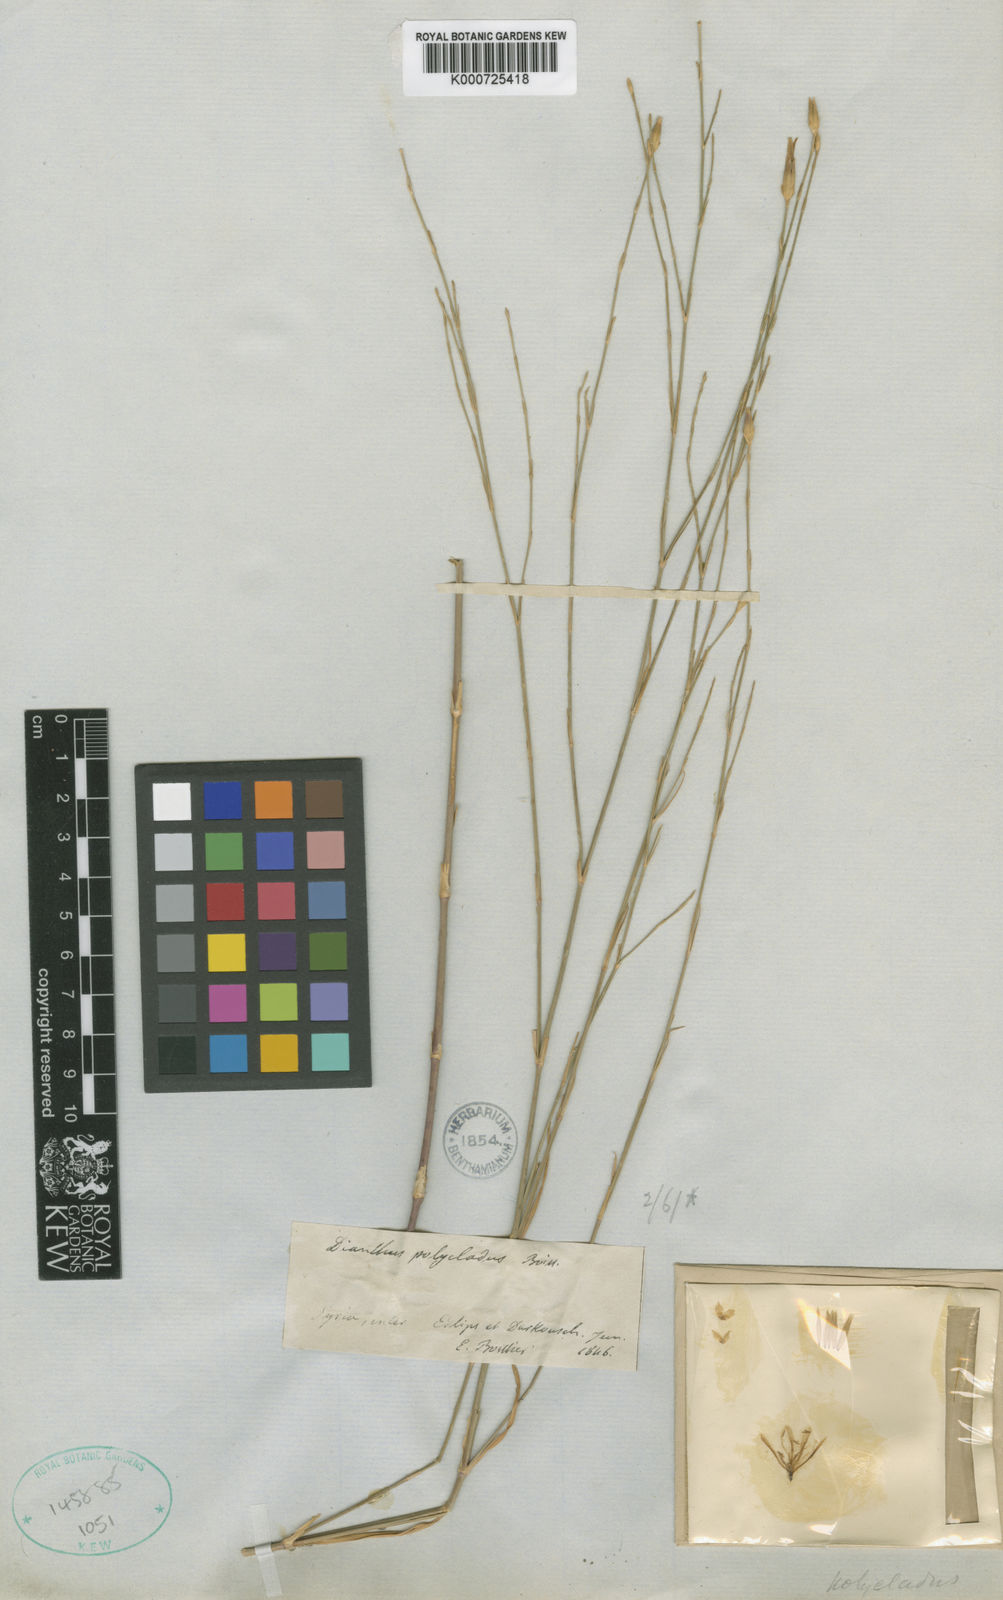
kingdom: Plantae
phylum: Tracheophyta
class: Magnoliopsida
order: Caryophyllales
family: Caryophyllaceae
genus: Dianthus
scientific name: Dianthus strictus
